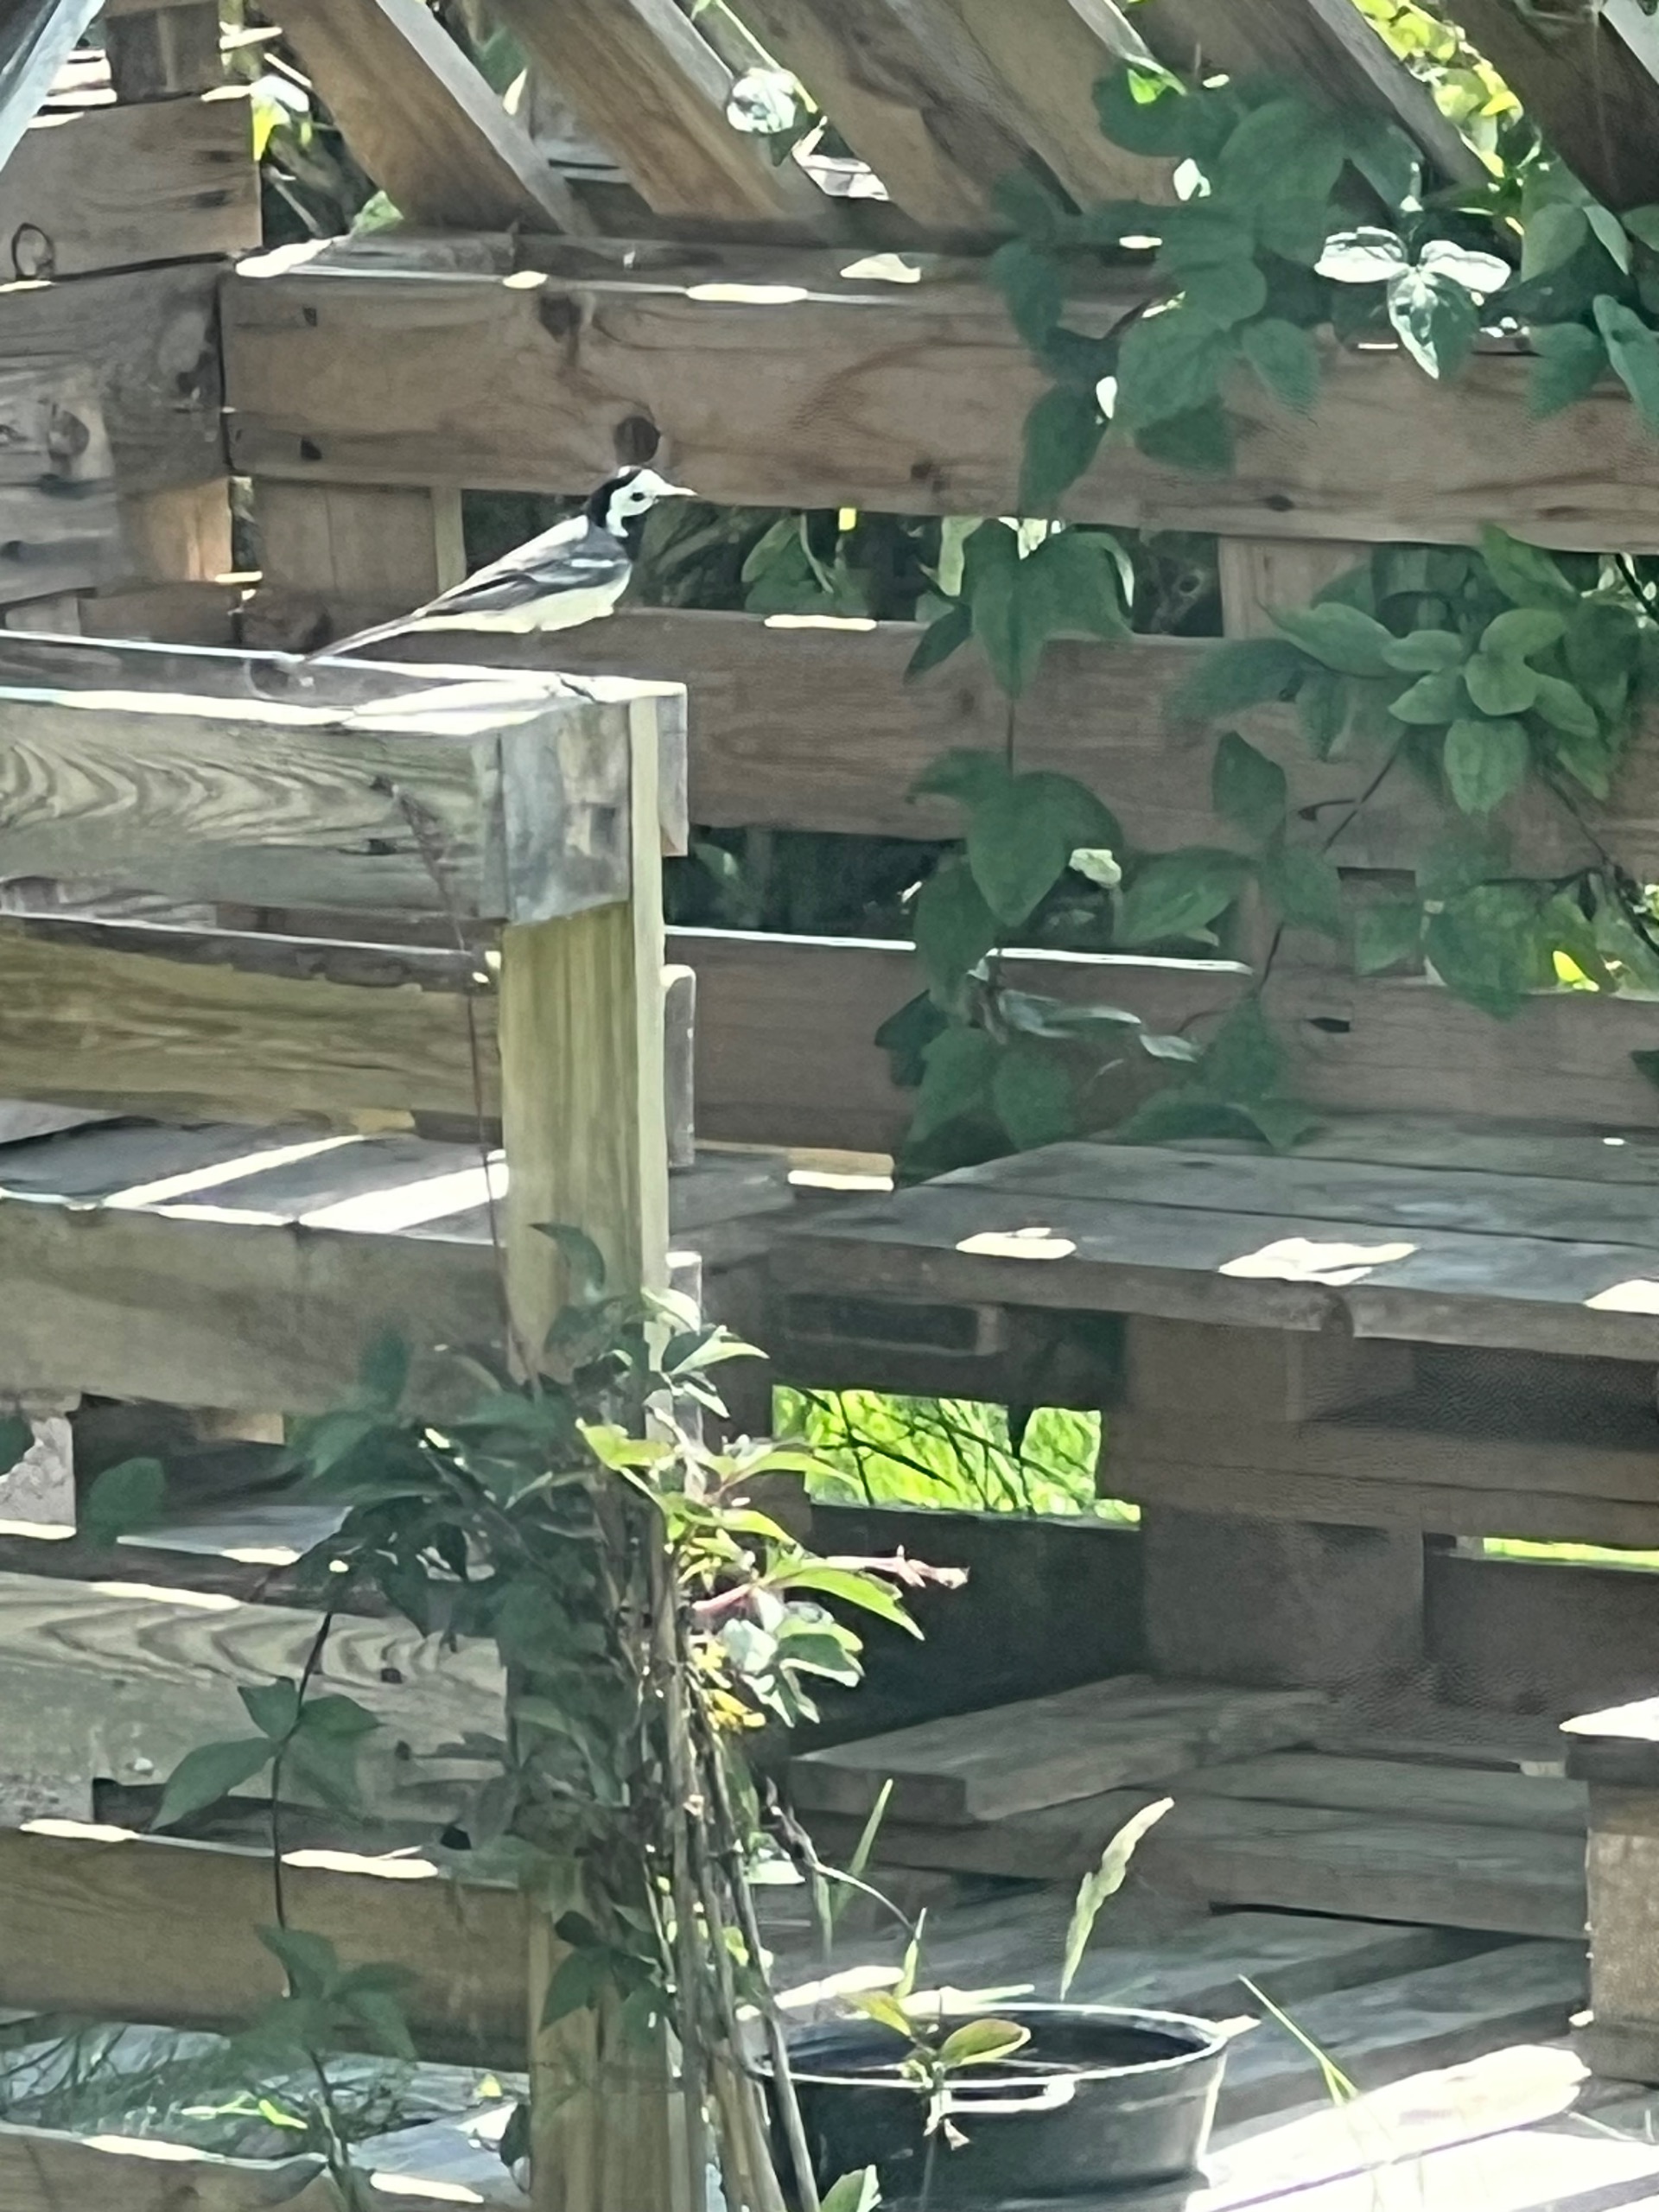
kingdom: Animalia
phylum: Chordata
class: Aves
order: Passeriformes
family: Motacillidae
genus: Motacilla
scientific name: Motacilla alba
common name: Hvid vipstjert
